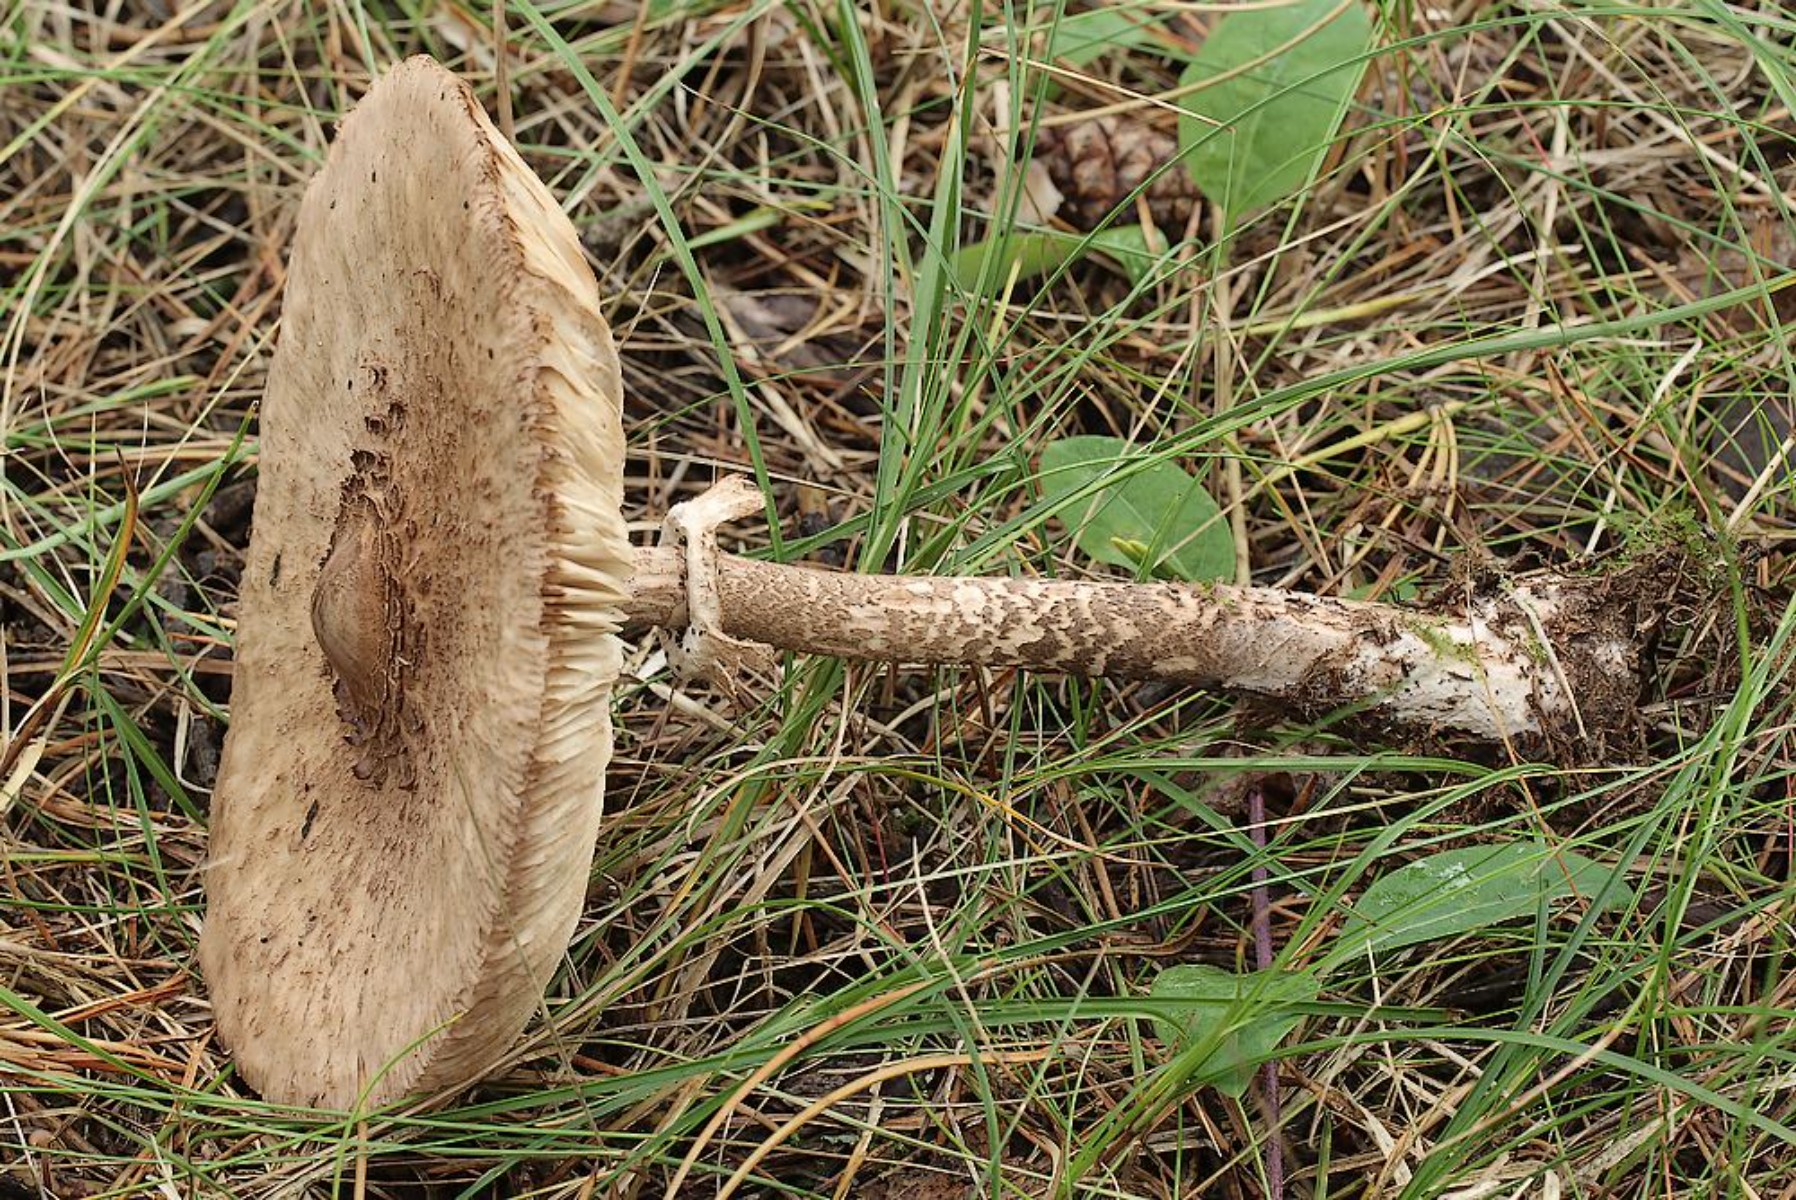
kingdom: Fungi
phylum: Basidiomycota
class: Agaricomycetes
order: Agaricales
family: Agaricaceae
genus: Macrolepiota
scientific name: Macrolepiota fuliginosa
